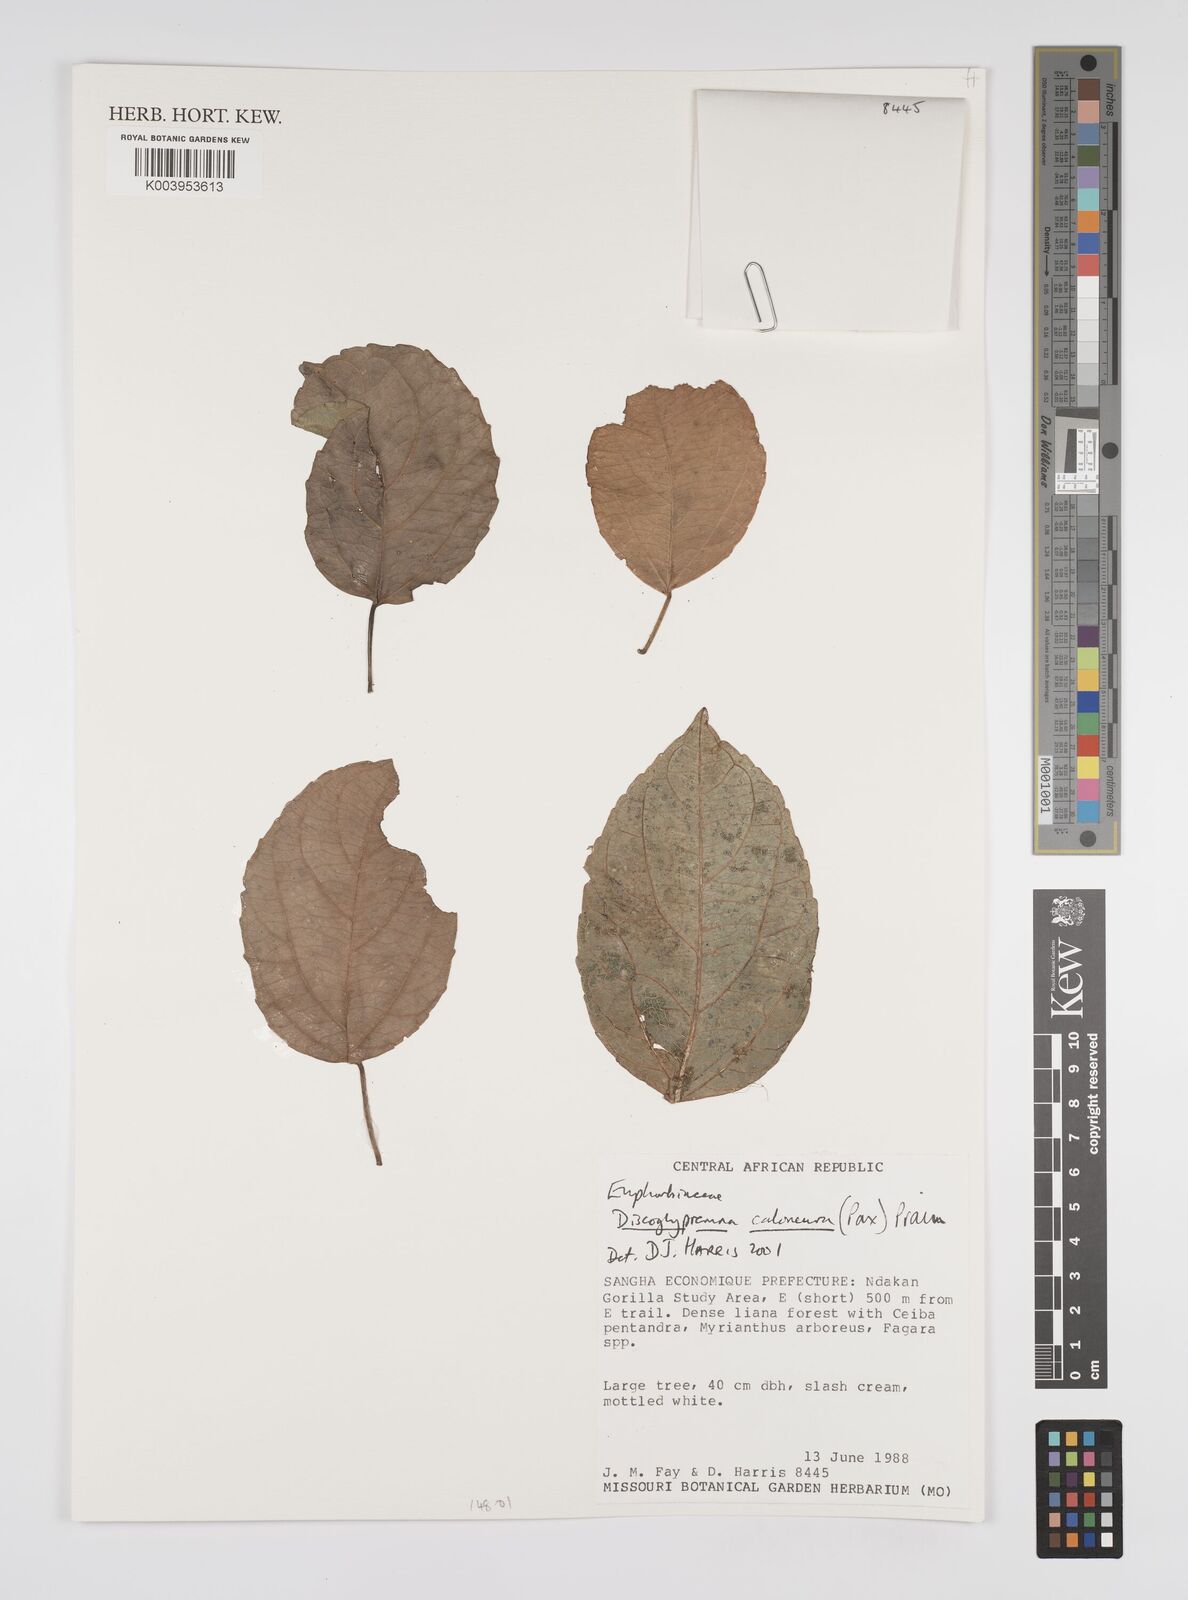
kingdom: Plantae
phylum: Tracheophyta
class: Magnoliopsida
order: Malpighiales
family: Euphorbiaceae
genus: Discoglypremna
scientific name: Discoglypremna caloneura
